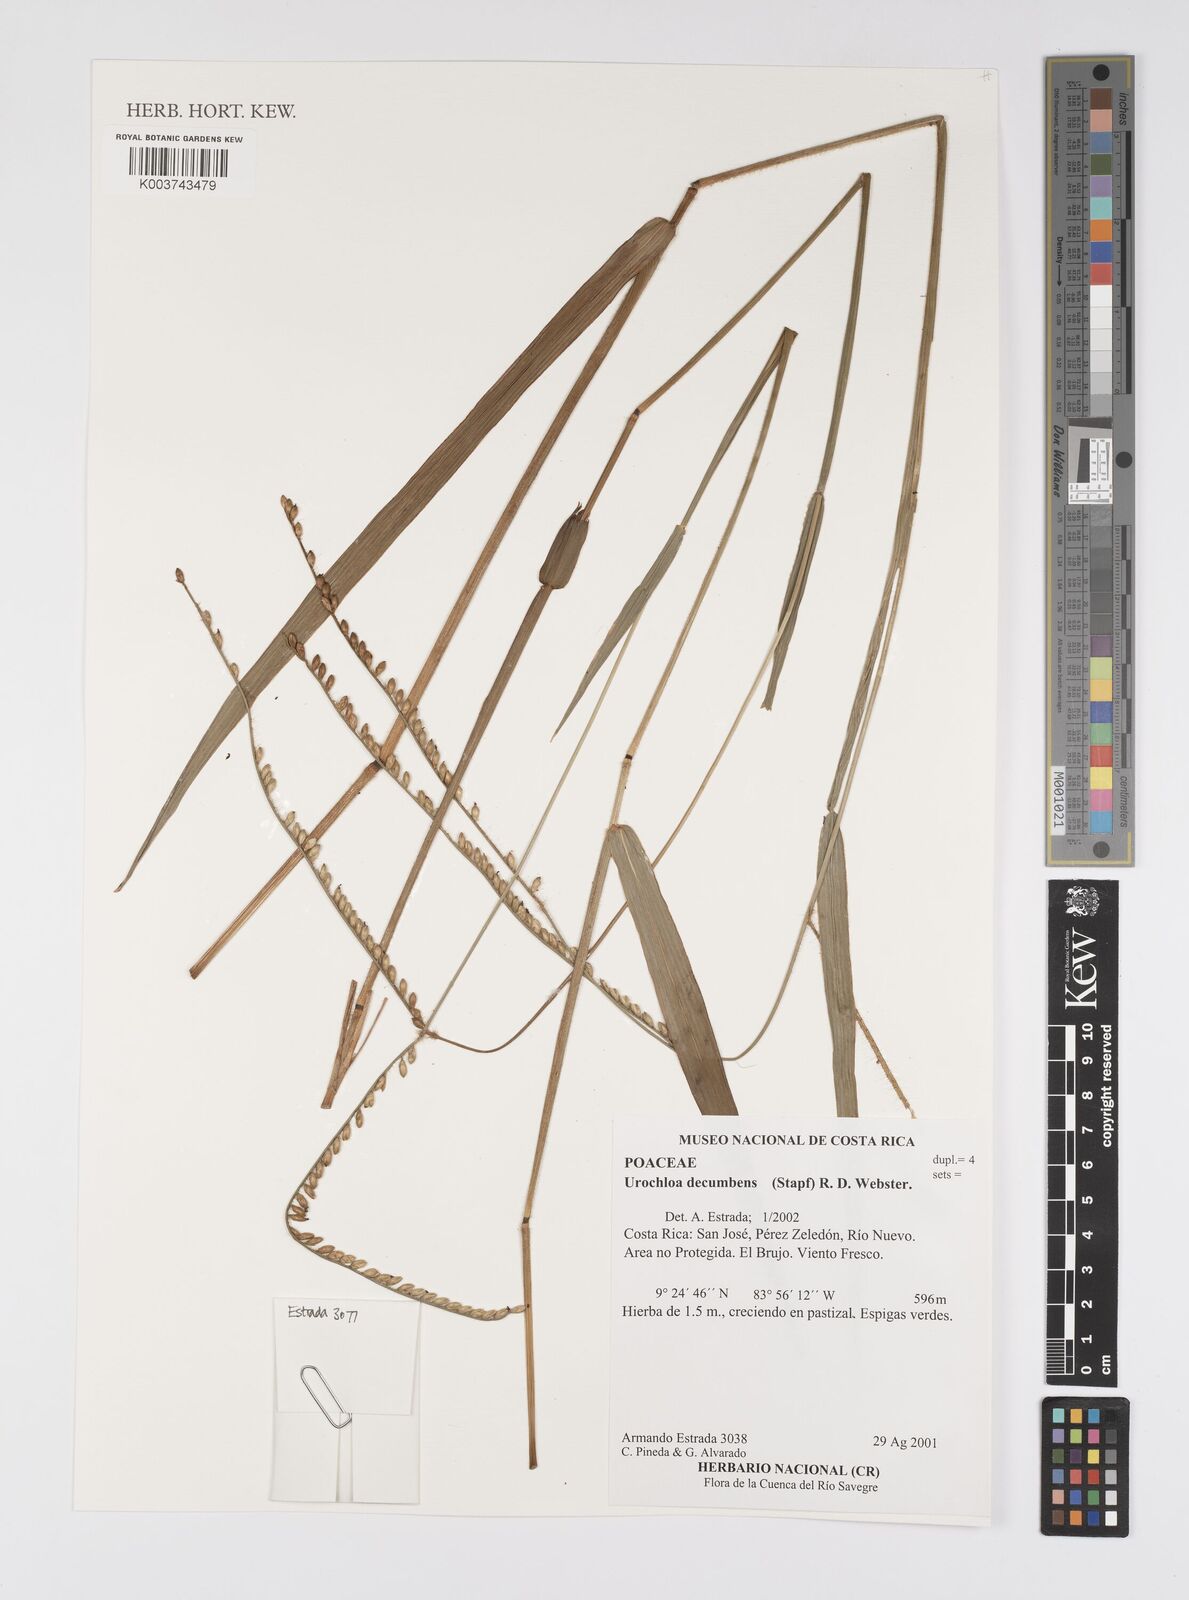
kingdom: Plantae
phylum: Tracheophyta
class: Liliopsida
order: Poales
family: Poaceae
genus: Urochloa
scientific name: Urochloa eminii
